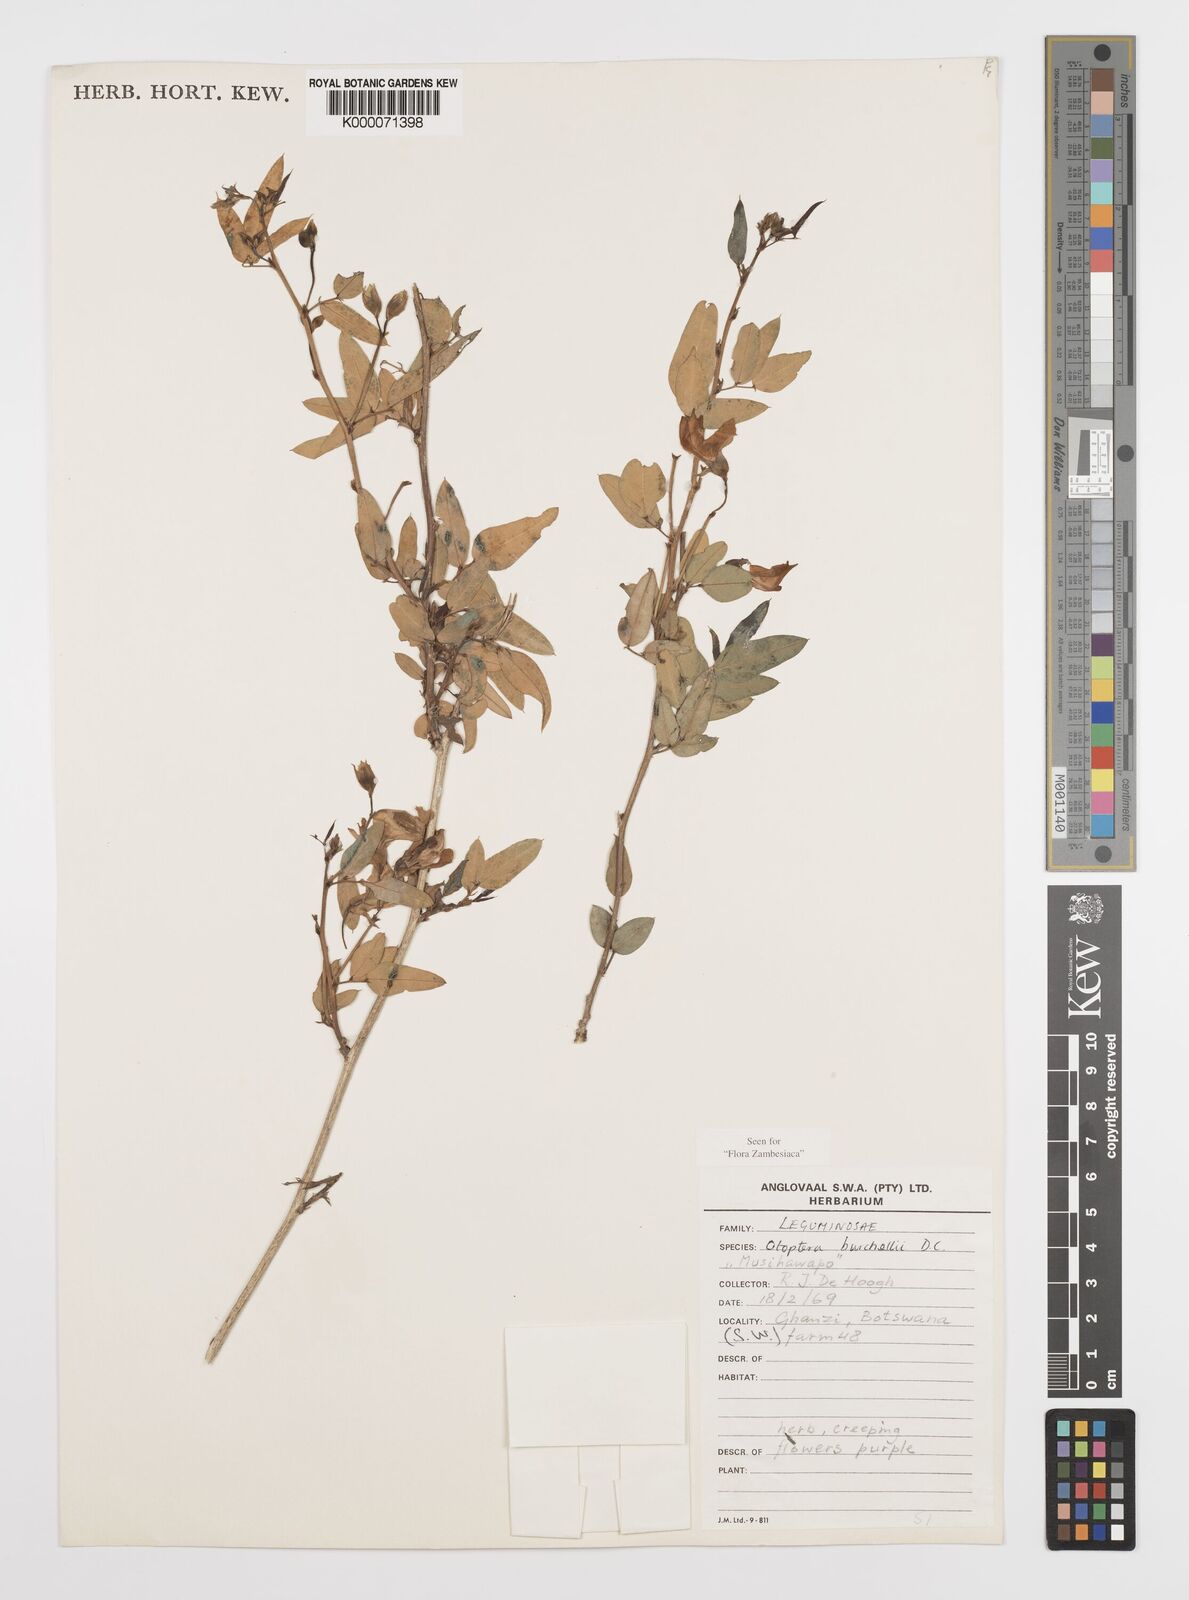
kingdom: Plantae
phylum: Tracheophyta
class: Magnoliopsida
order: Fabales
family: Fabaceae
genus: Otoptera
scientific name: Otoptera burchellii
